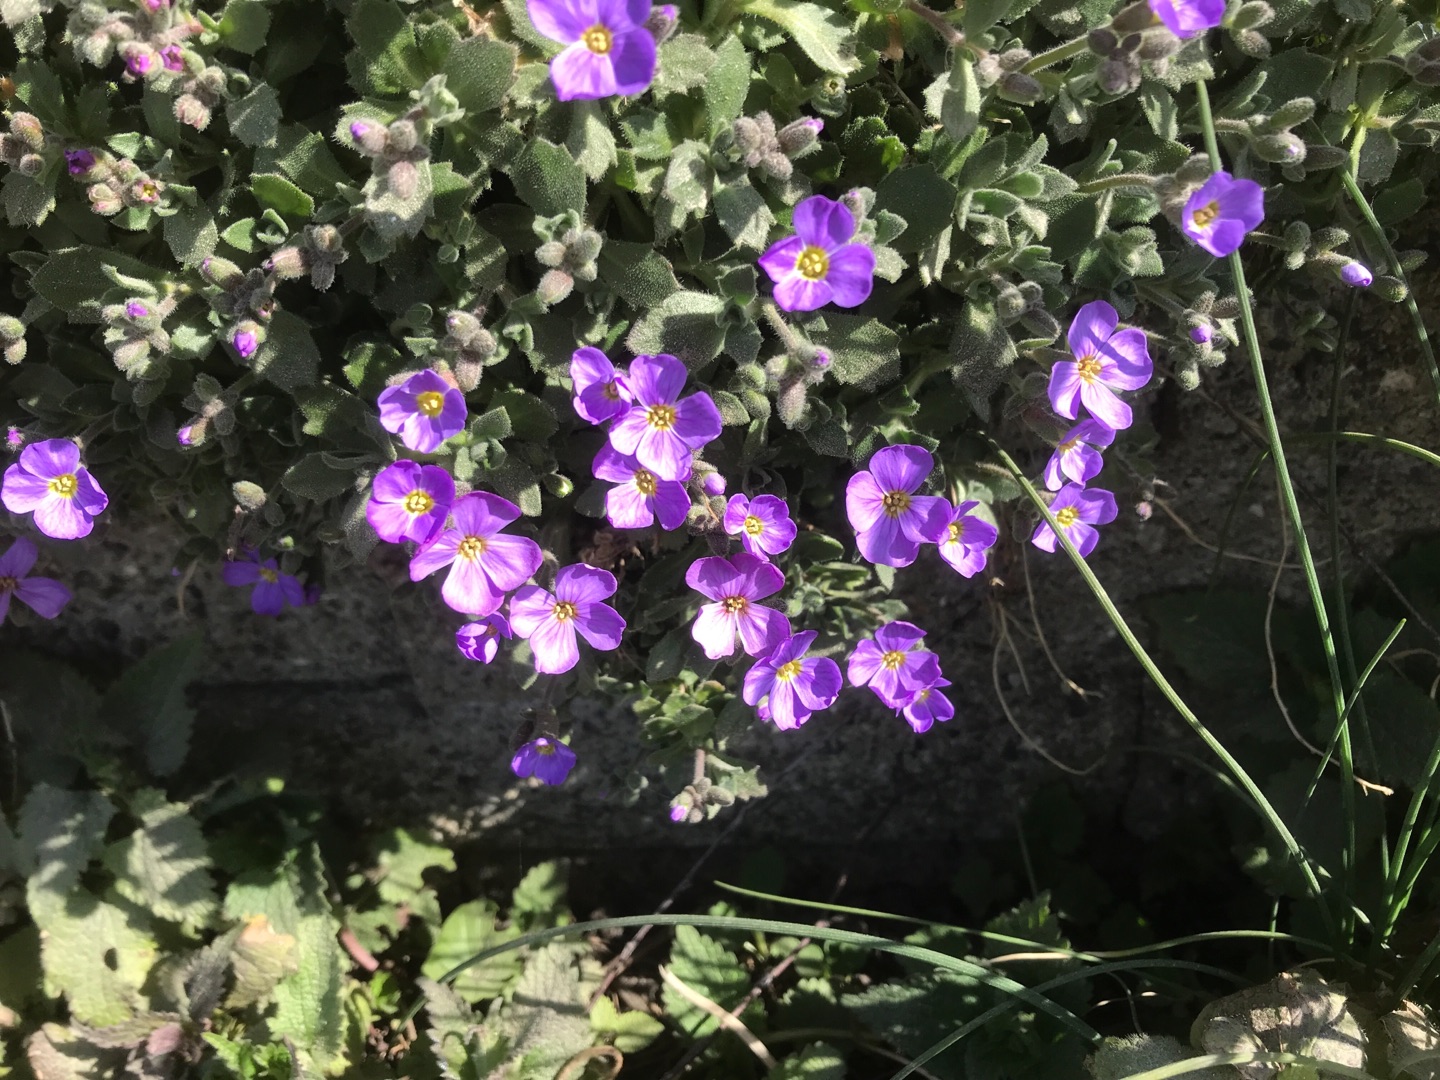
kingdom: Plantae
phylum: Tracheophyta
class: Magnoliopsida
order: Brassicales
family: Brassicaceae
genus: Aubrieta
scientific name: Aubrieta cultorum
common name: Blåpude
